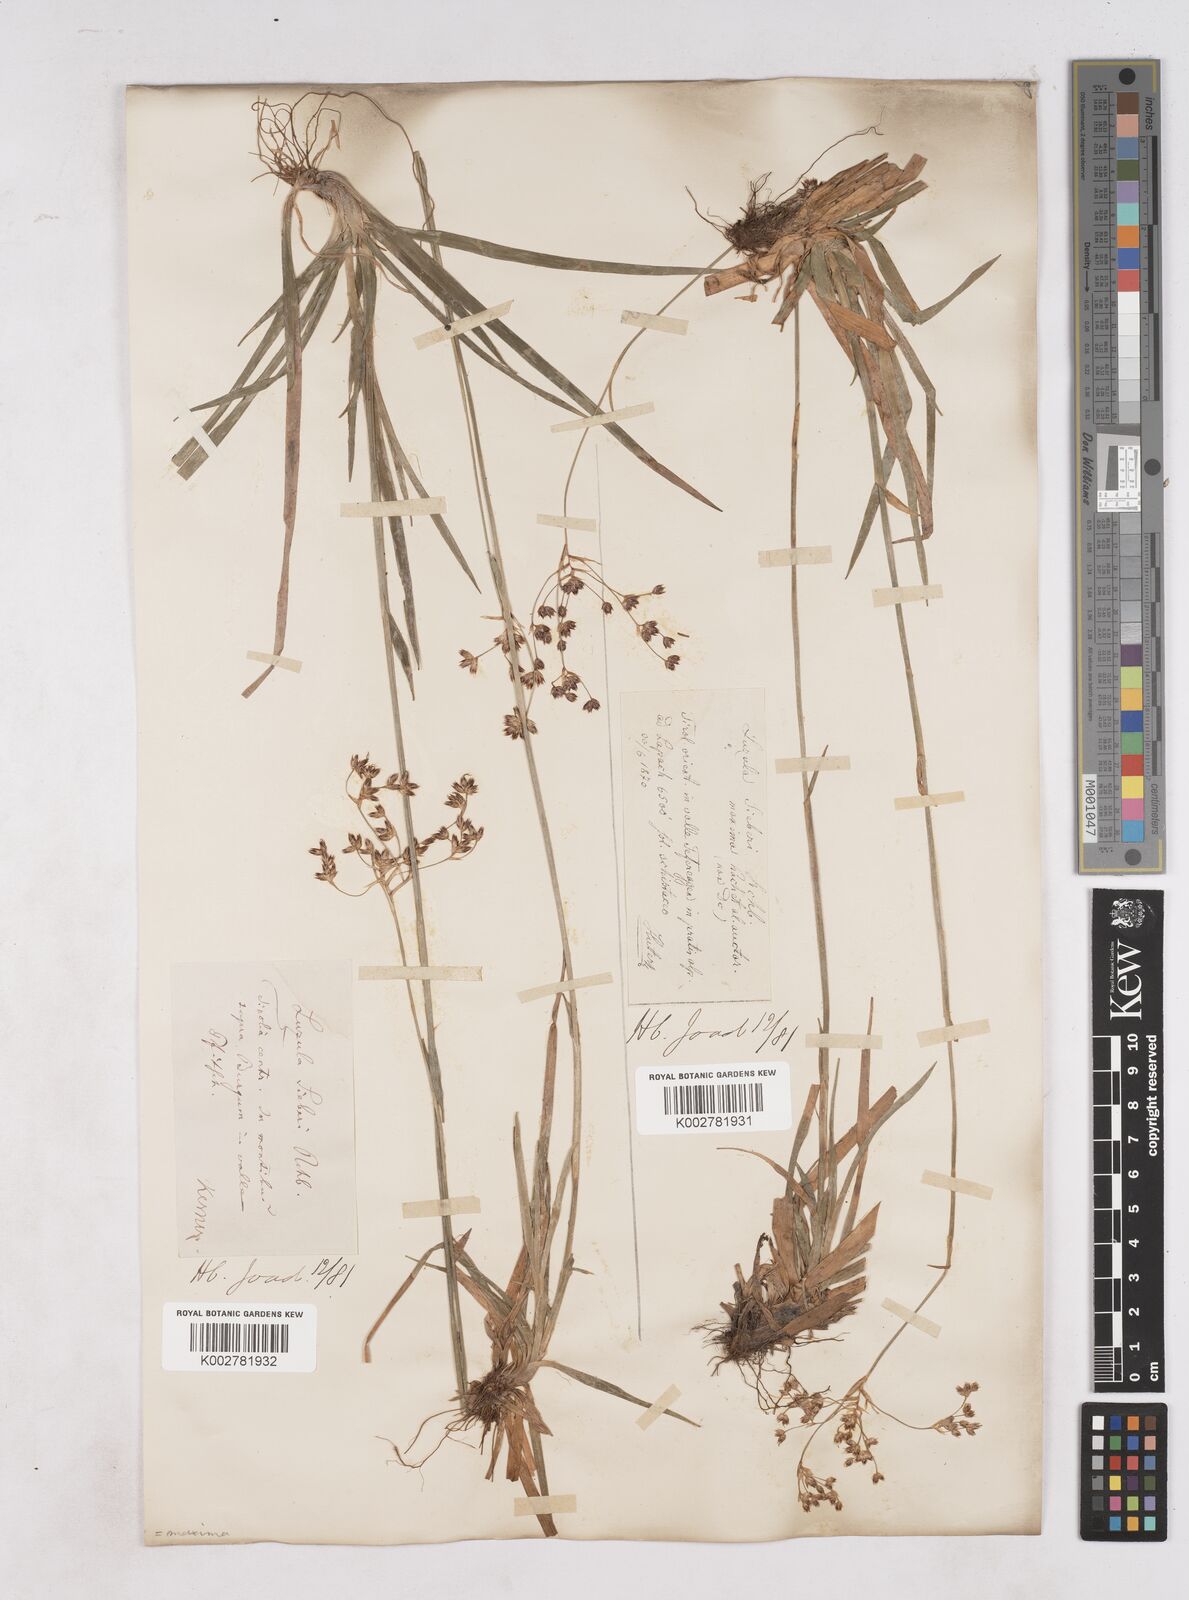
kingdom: Plantae
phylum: Tracheophyta
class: Liliopsida
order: Poales
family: Juncaceae
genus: Luzula
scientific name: Luzula sylvatica
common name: Great wood-rush
